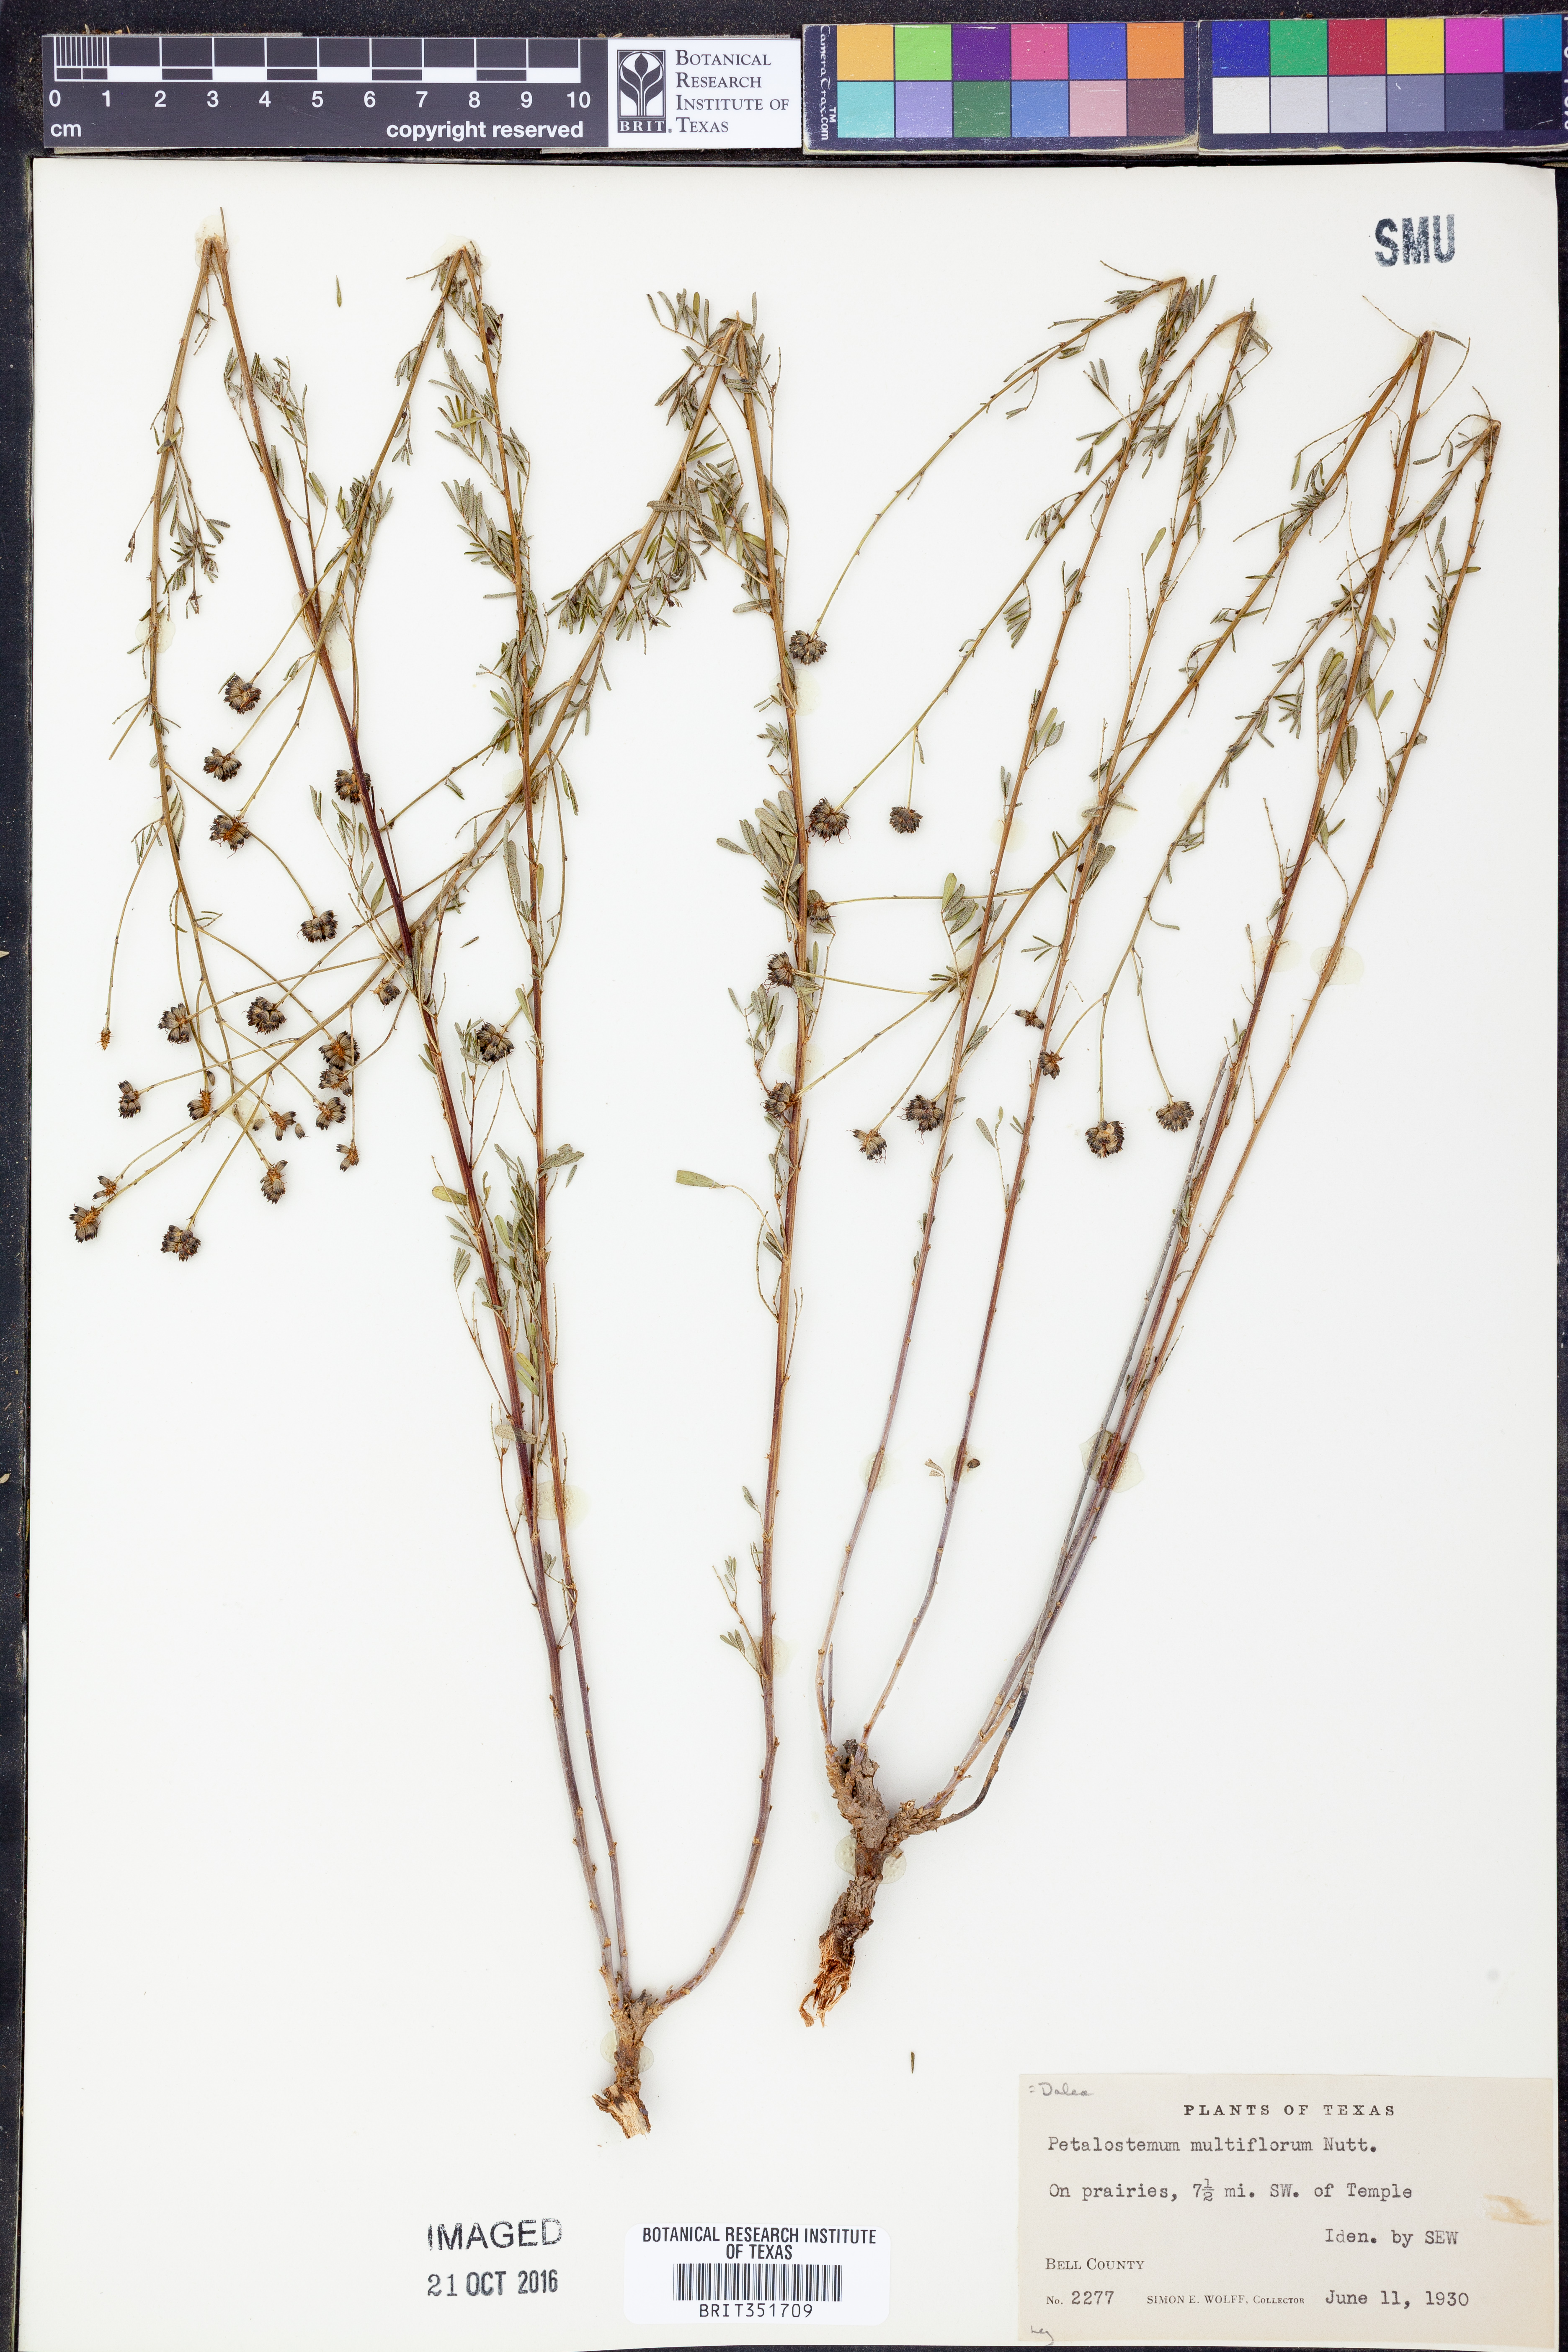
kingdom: Plantae
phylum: Tracheophyta
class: Magnoliopsida
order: Fabales
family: Fabaceae
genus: Dalea
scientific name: Dalea multiflora
